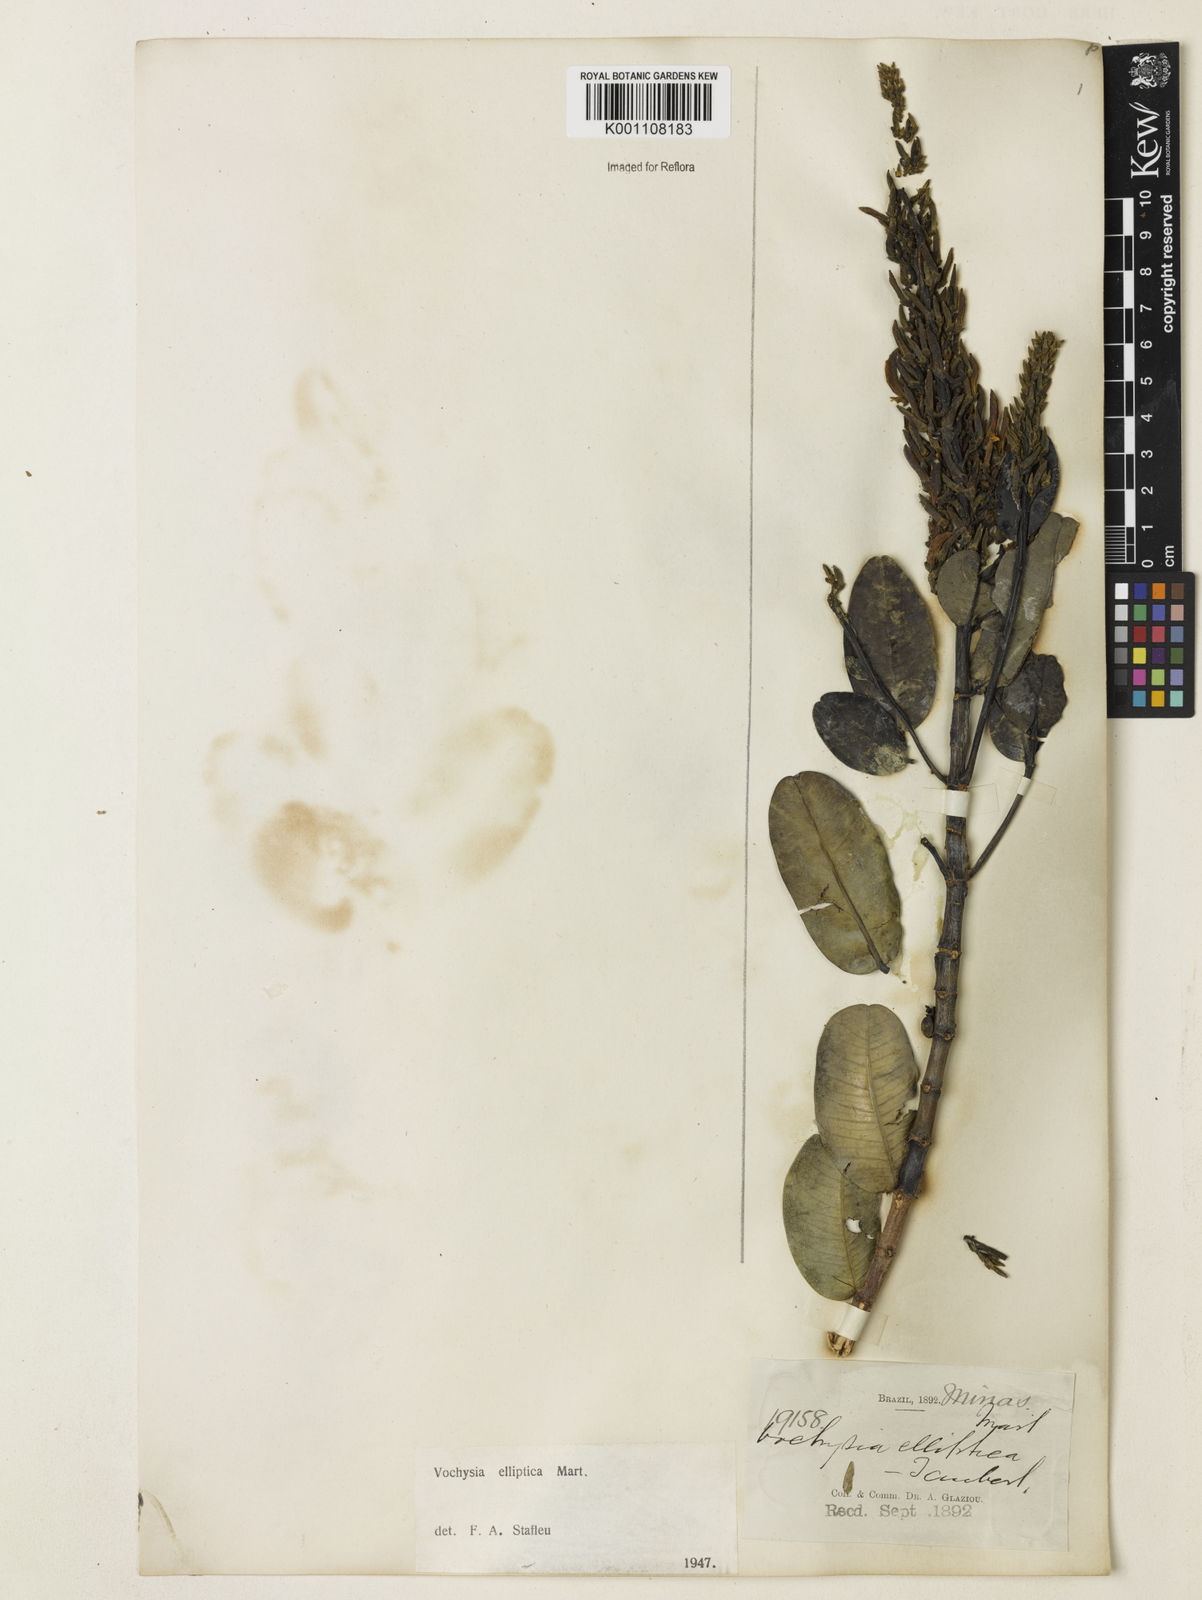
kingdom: Plantae
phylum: Tracheophyta
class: Magnoliopsida
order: Myrtales
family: Vochysiaceae
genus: Vochysia
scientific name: Vochysia elliptica
